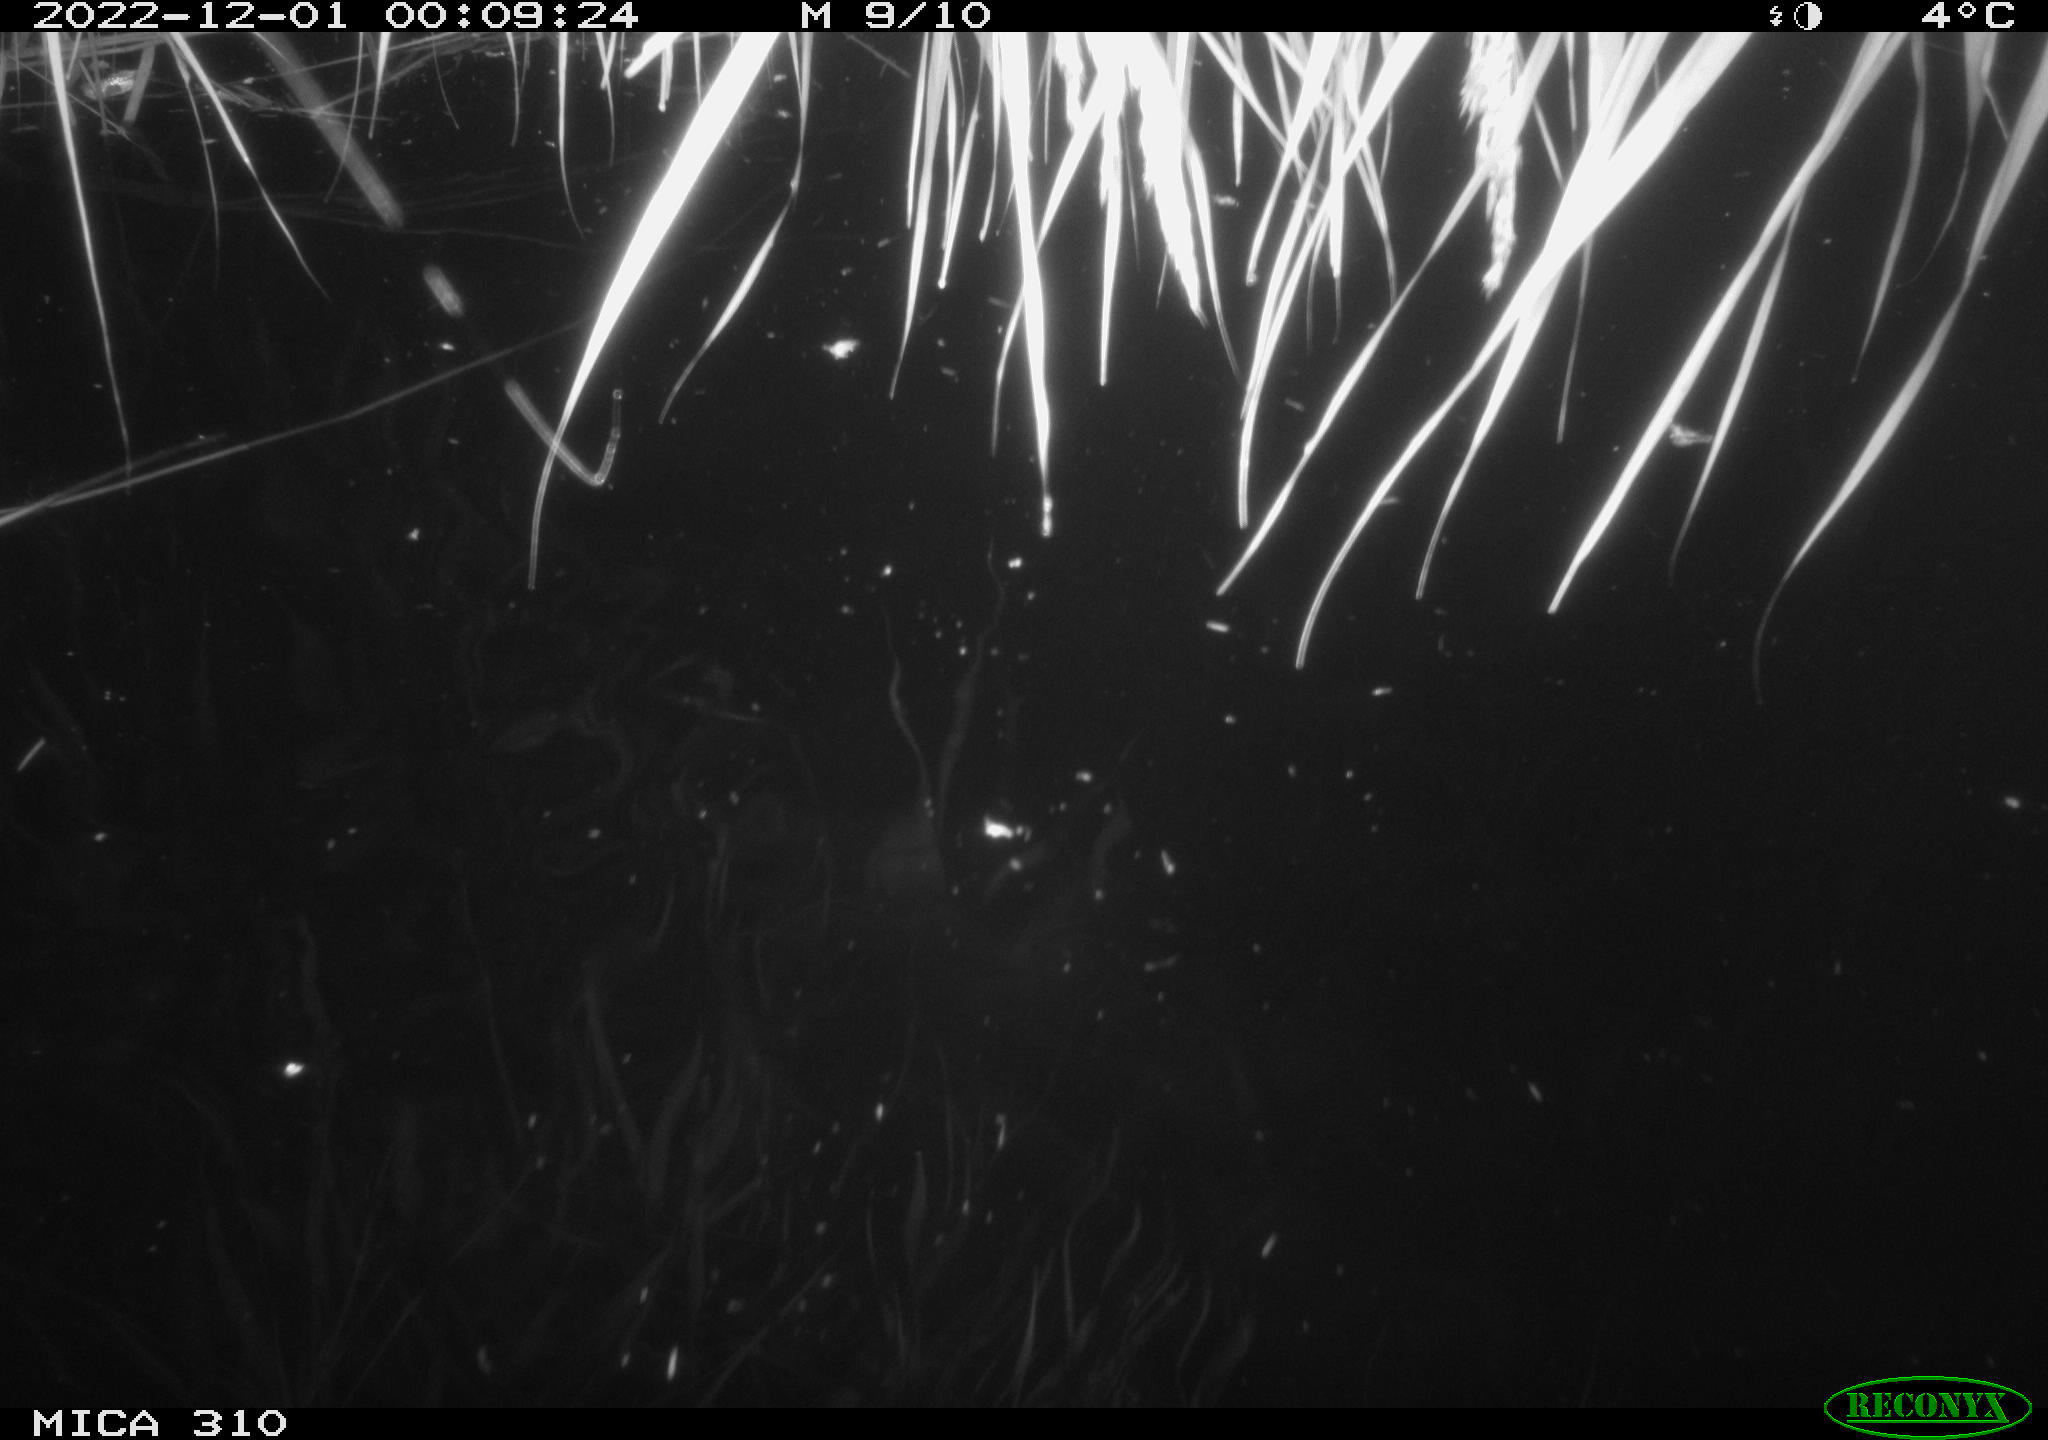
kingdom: Animalia
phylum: Chordata
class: Mammalia
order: Rodentia
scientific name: Rodentia
